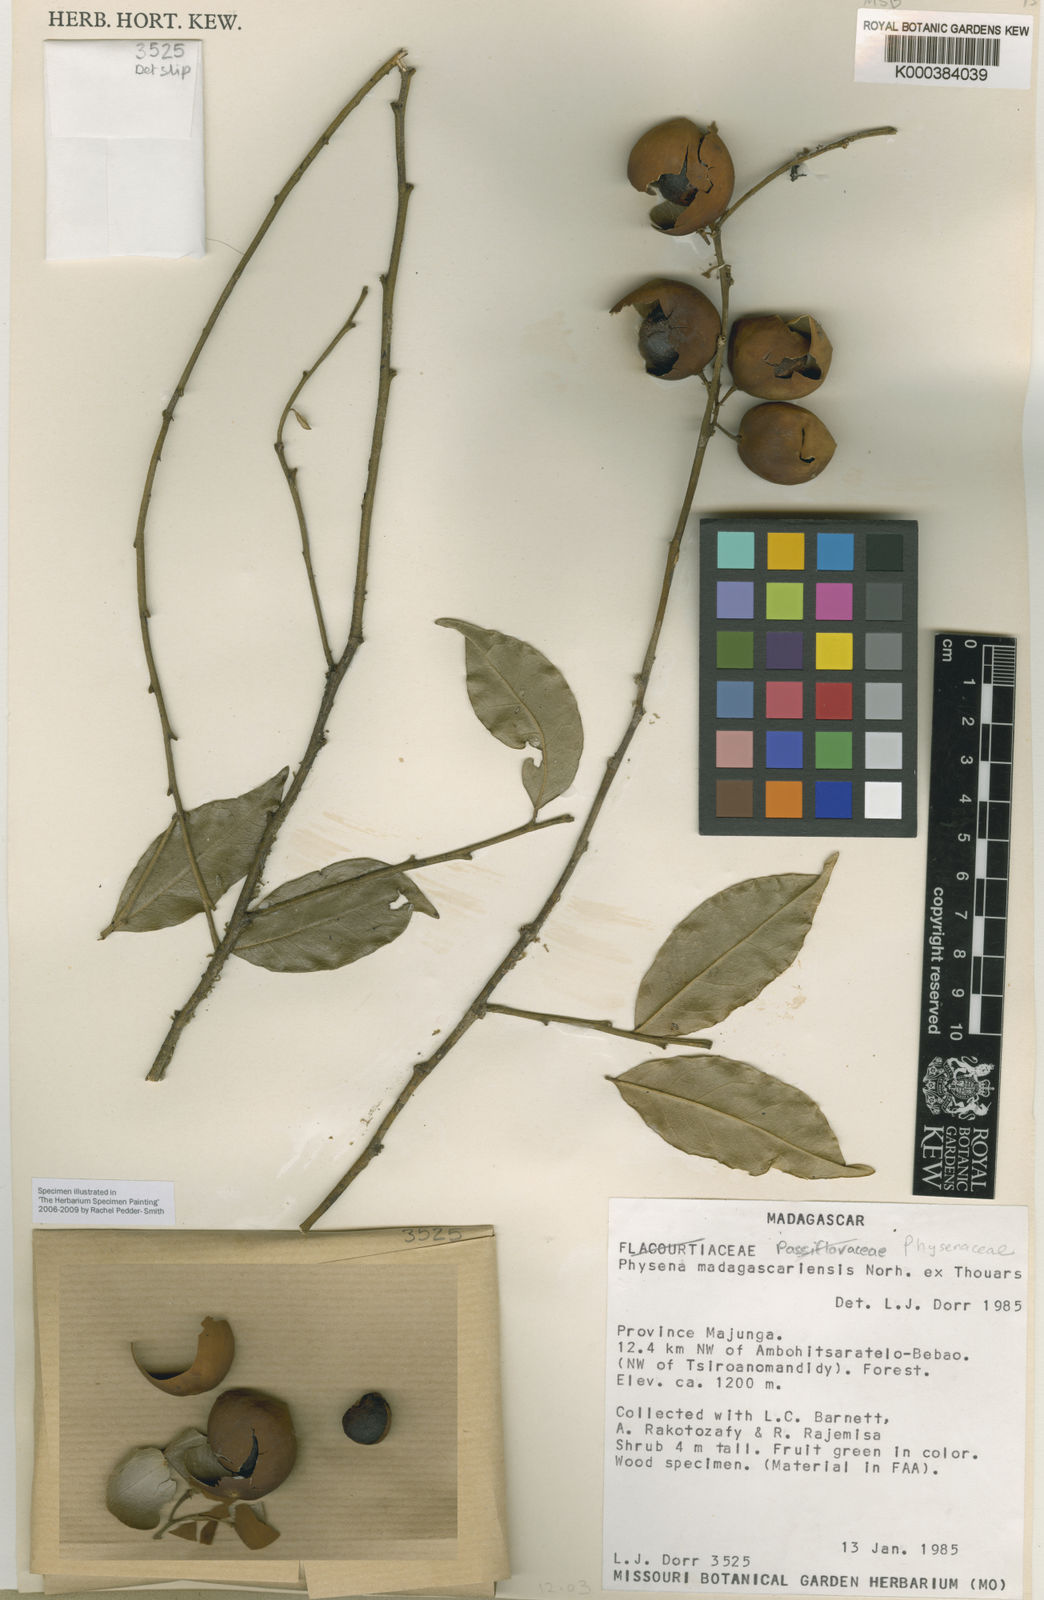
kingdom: Plantae
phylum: Tracheophyta
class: Magnoliopsida
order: Caryophyllales
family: Physenaceae
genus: Physena
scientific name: Physena madagascariensis
